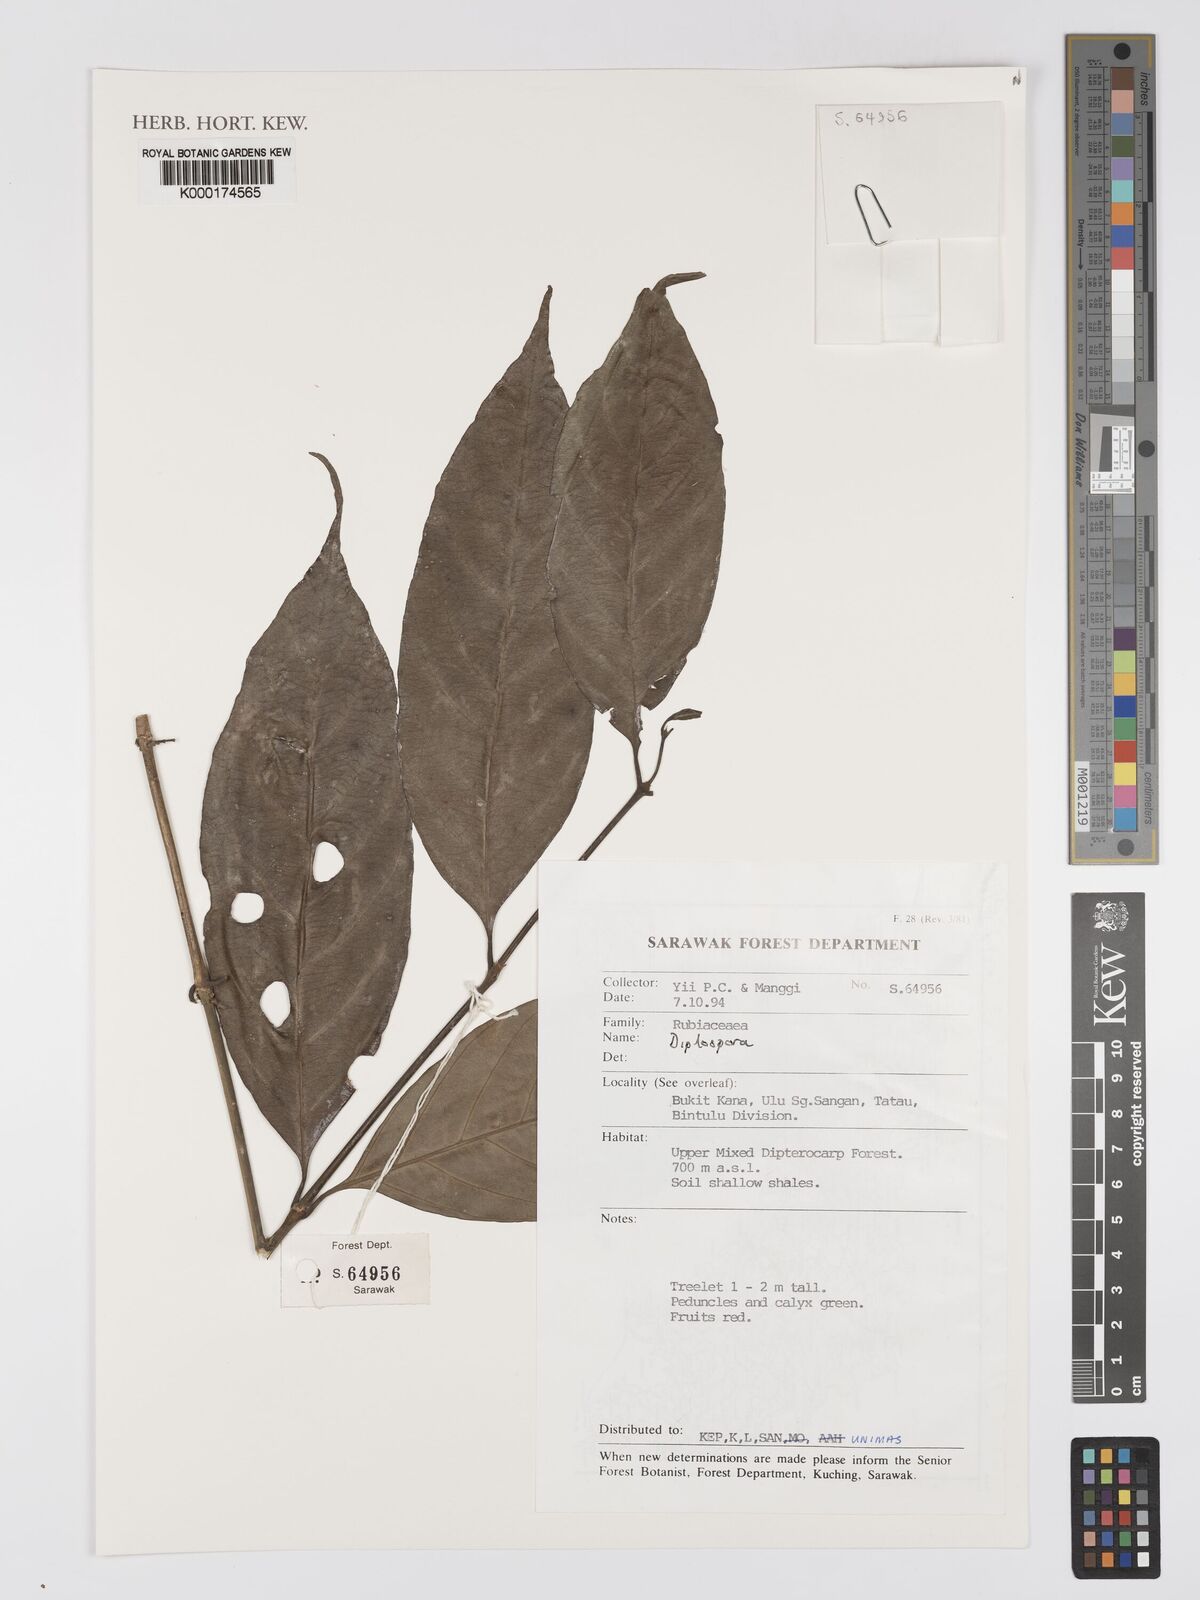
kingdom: Plantae
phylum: Tracheophyta
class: Magnoliopsida
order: Gentianales
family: Rubiaceae
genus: Diplospora
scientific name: Diplospora
